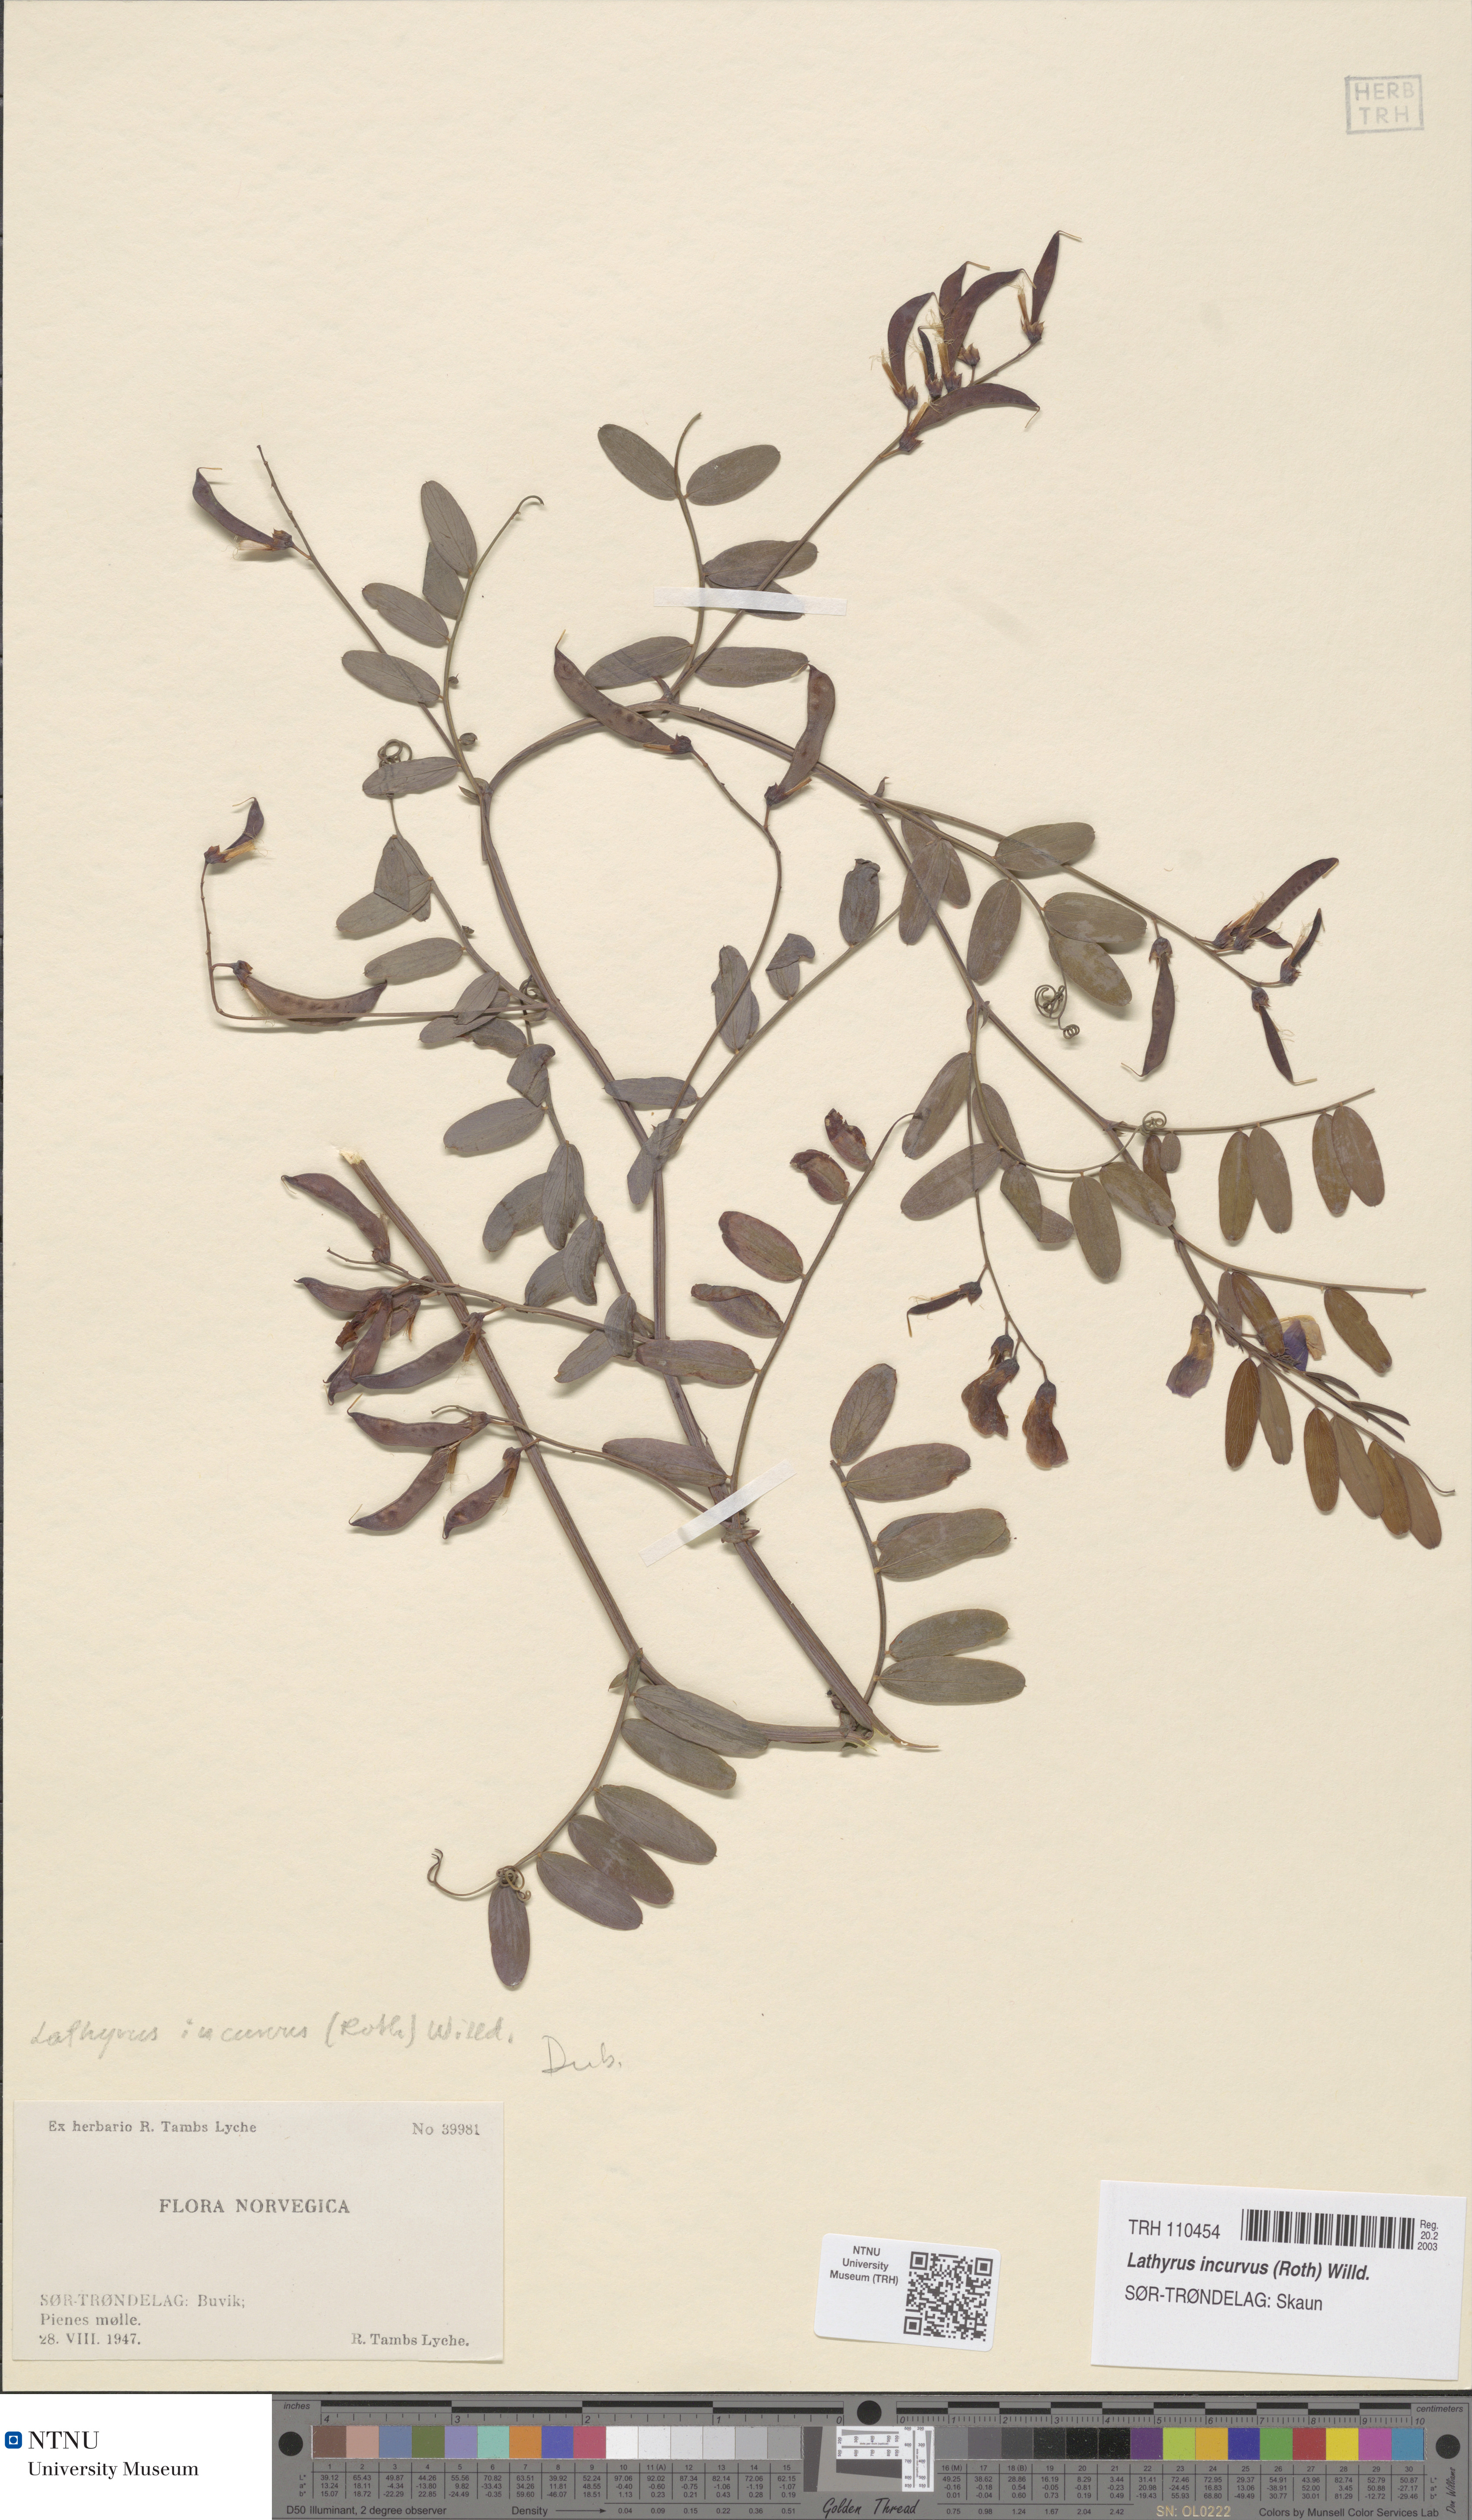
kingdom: Plantae
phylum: Tracheophyta
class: Magnoliopsida
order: Fabales
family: Fabaceae
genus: Lathyrus
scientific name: Lathyrus incurvus
